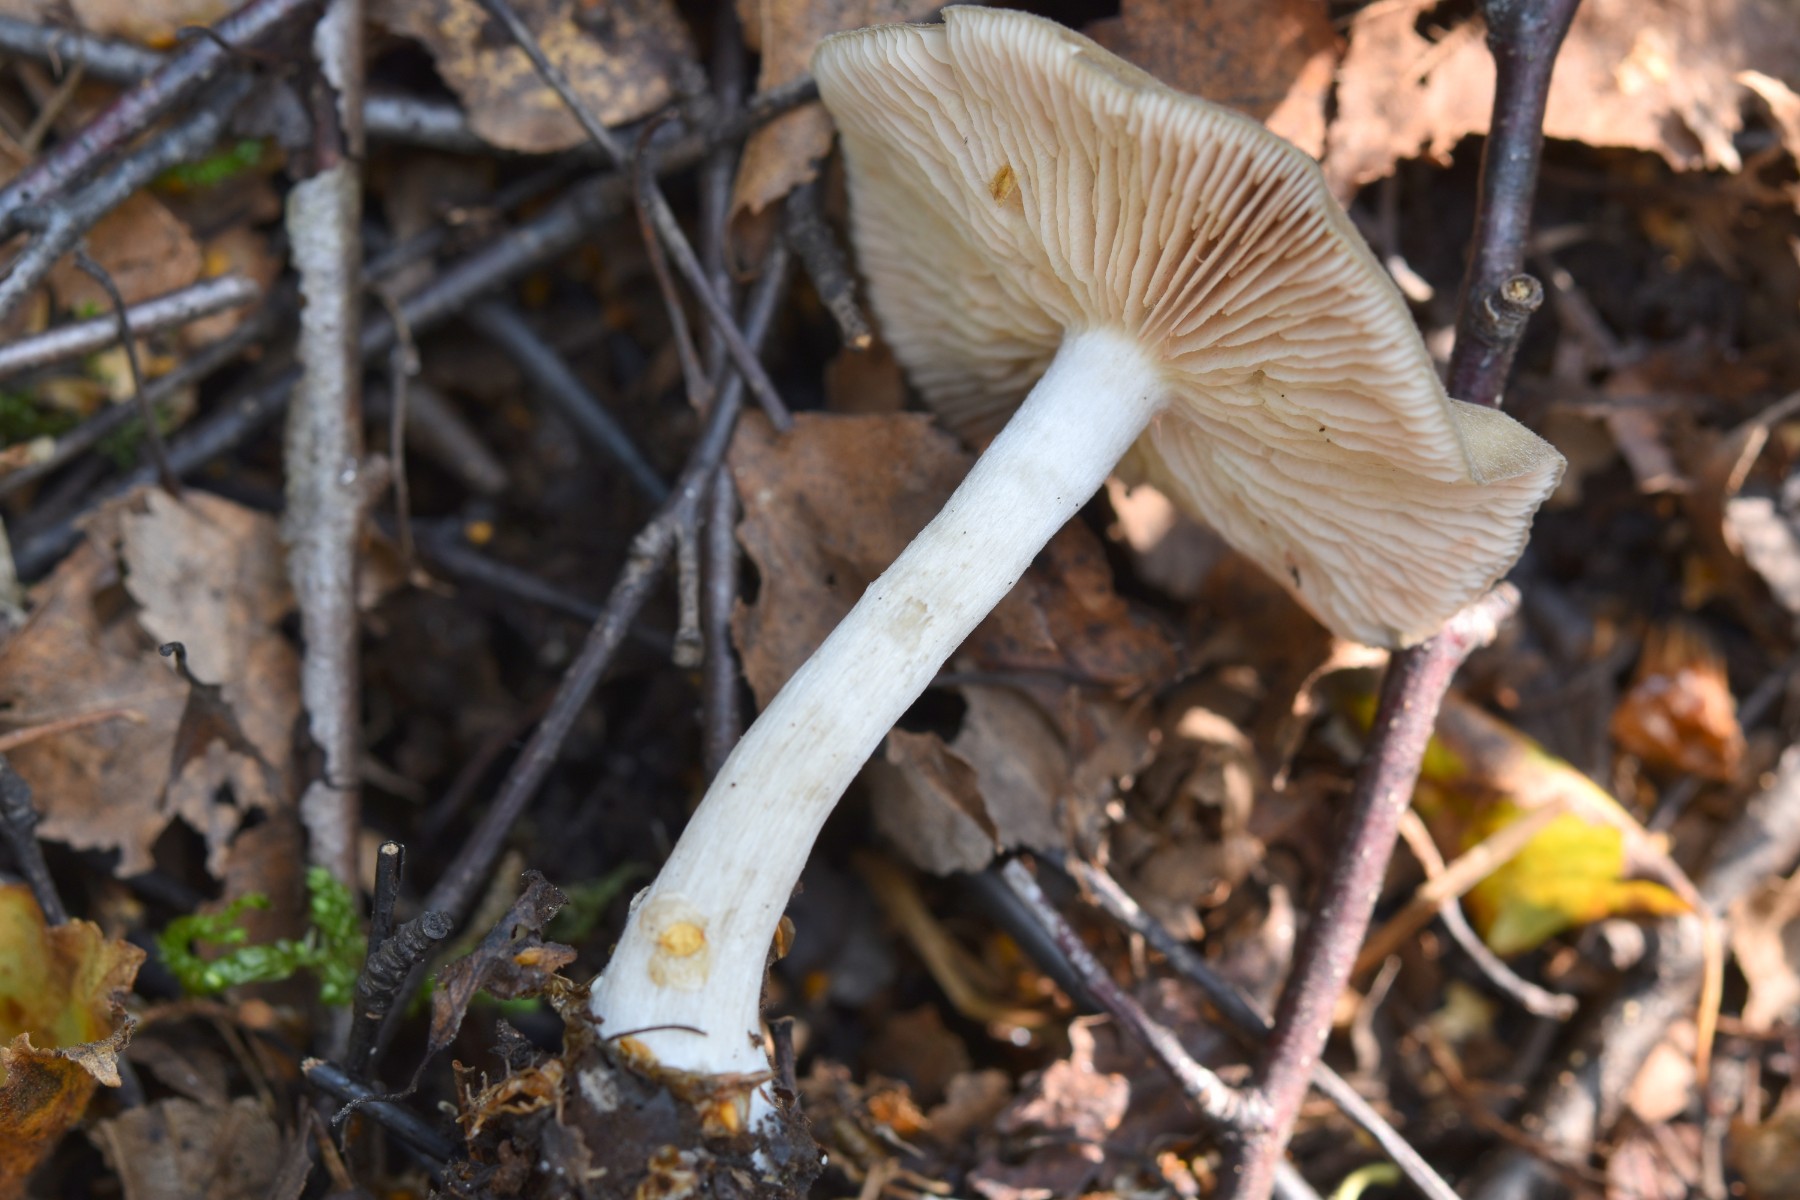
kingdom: Fungi
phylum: Basidiomycota
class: Agaricomycetes
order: Agaricales
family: Entolomataceae
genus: Entoloma
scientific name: Entoloma
